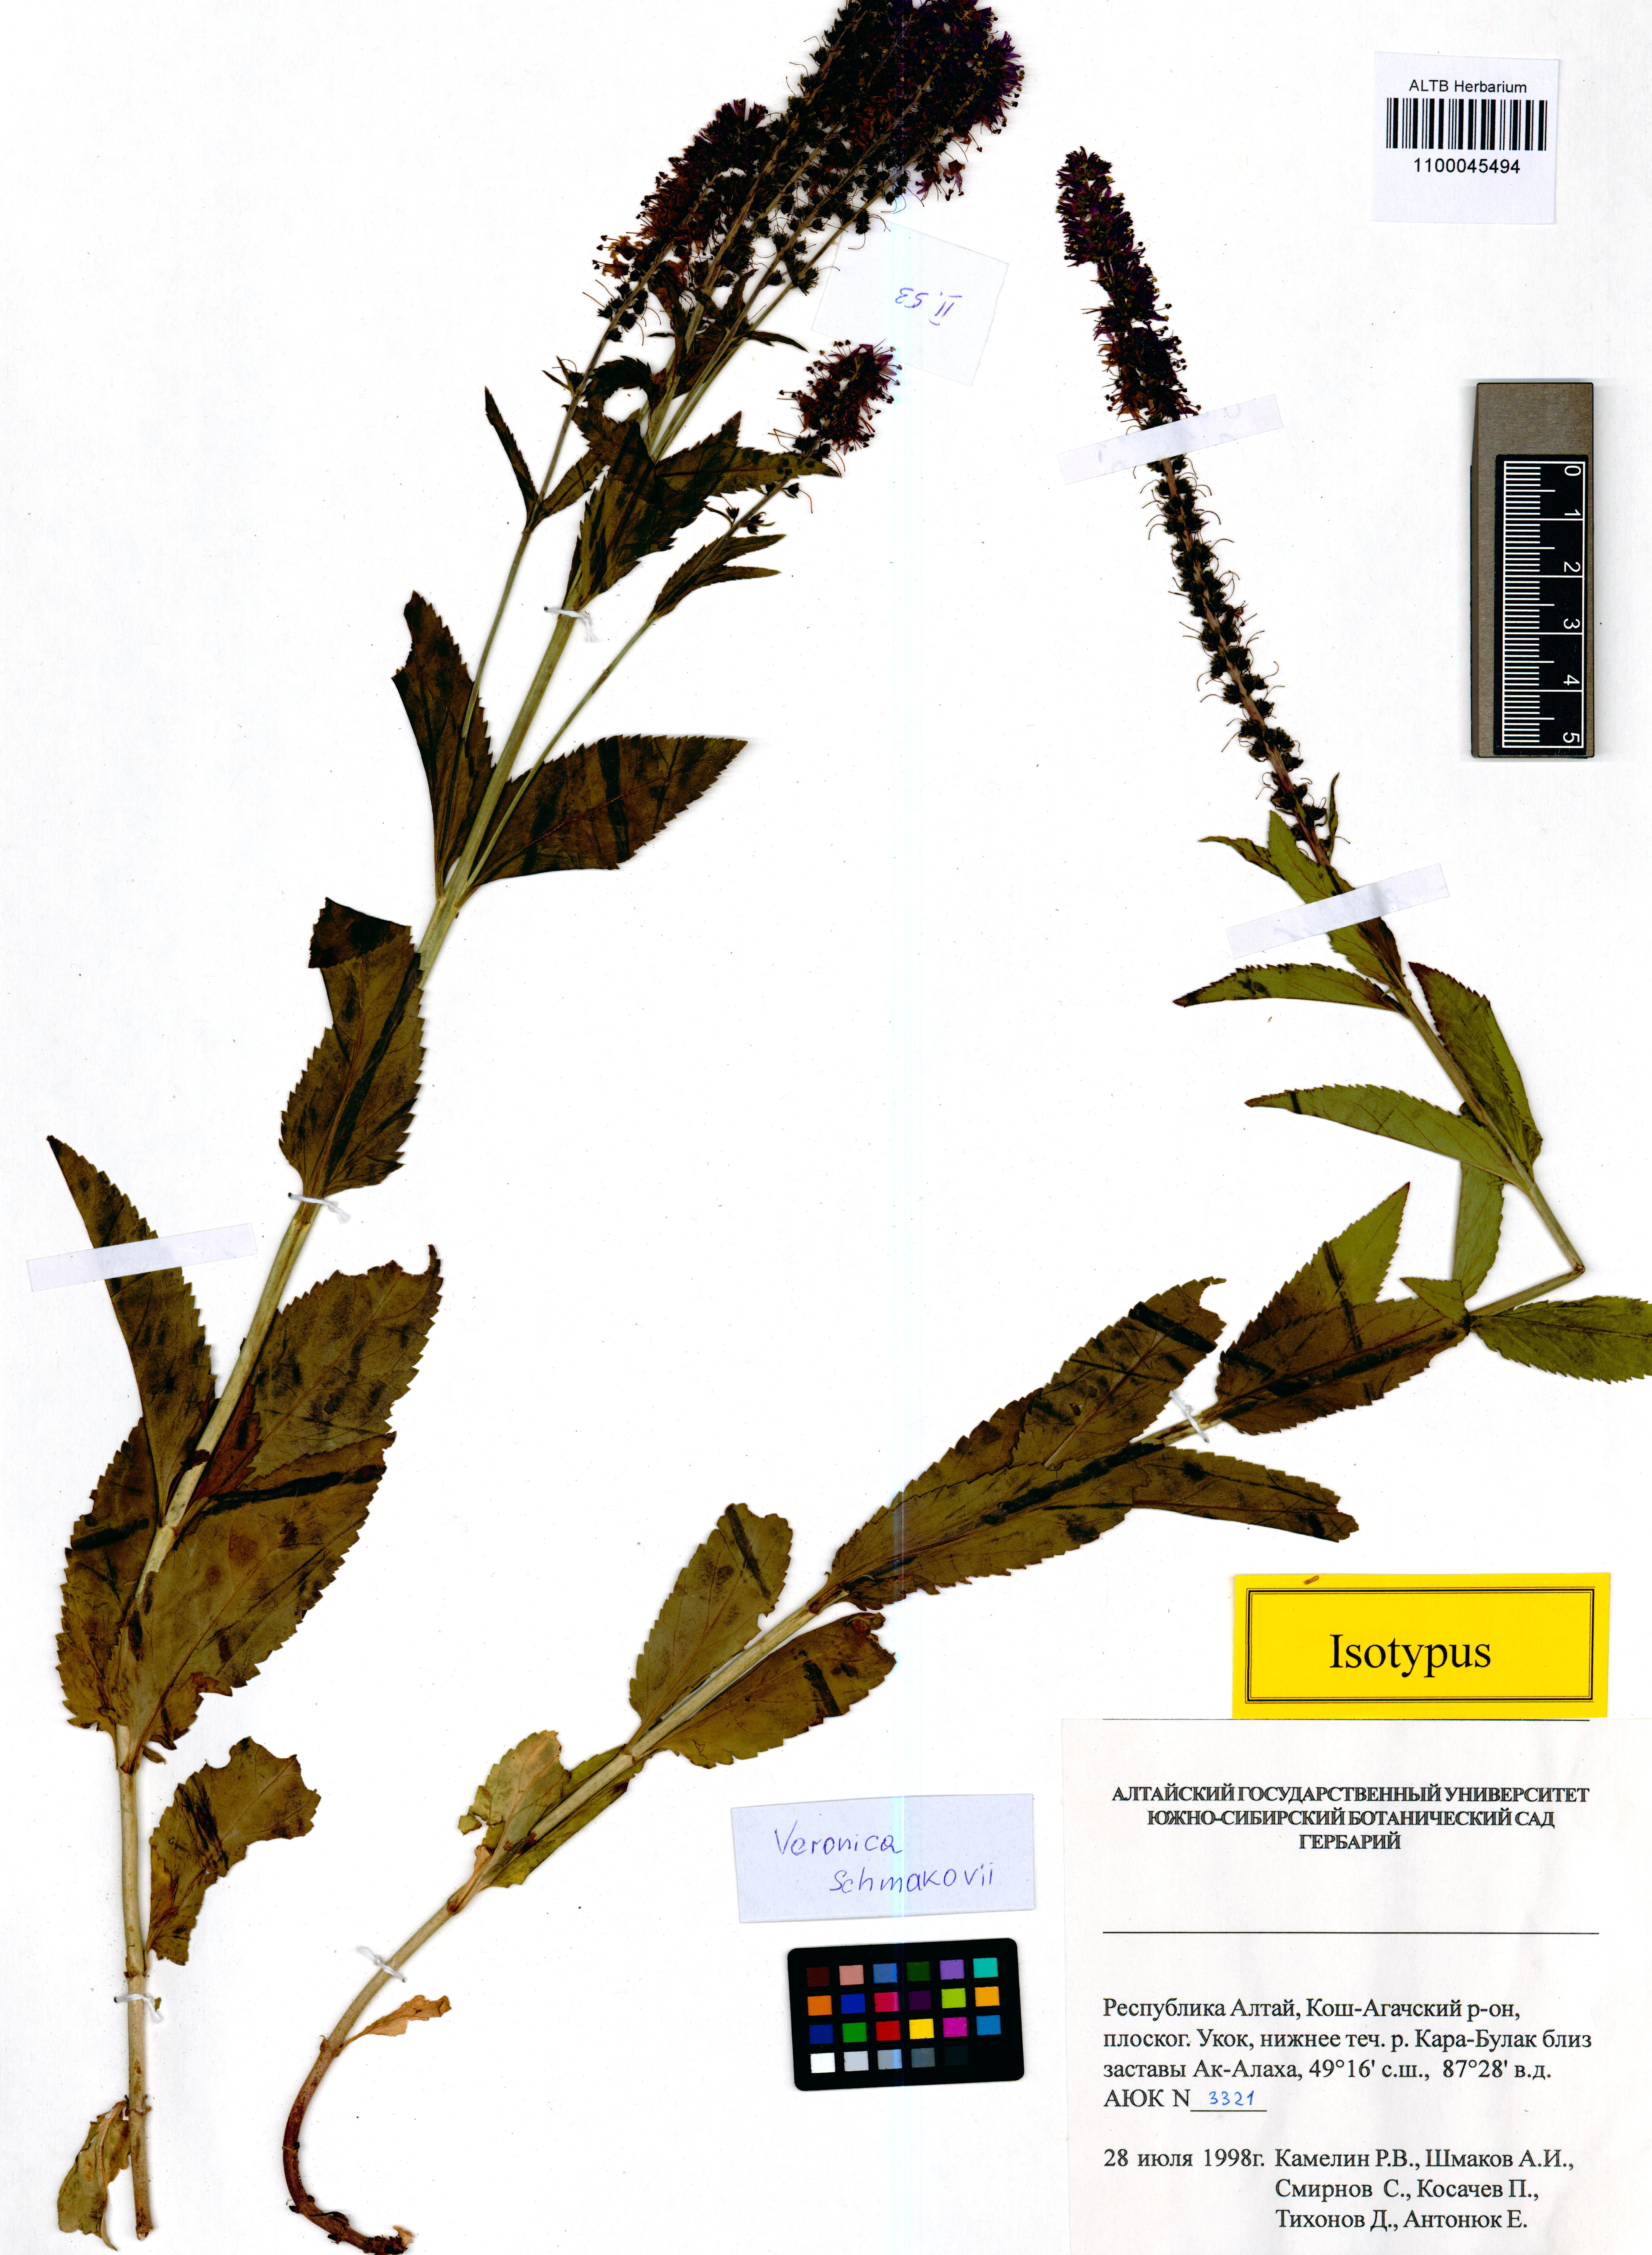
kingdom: Plantae
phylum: Tracheophyta
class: Magnoliopsida
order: Lamiales
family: Plantaginaceae
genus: Veronica
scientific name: Veronica schmakovii
